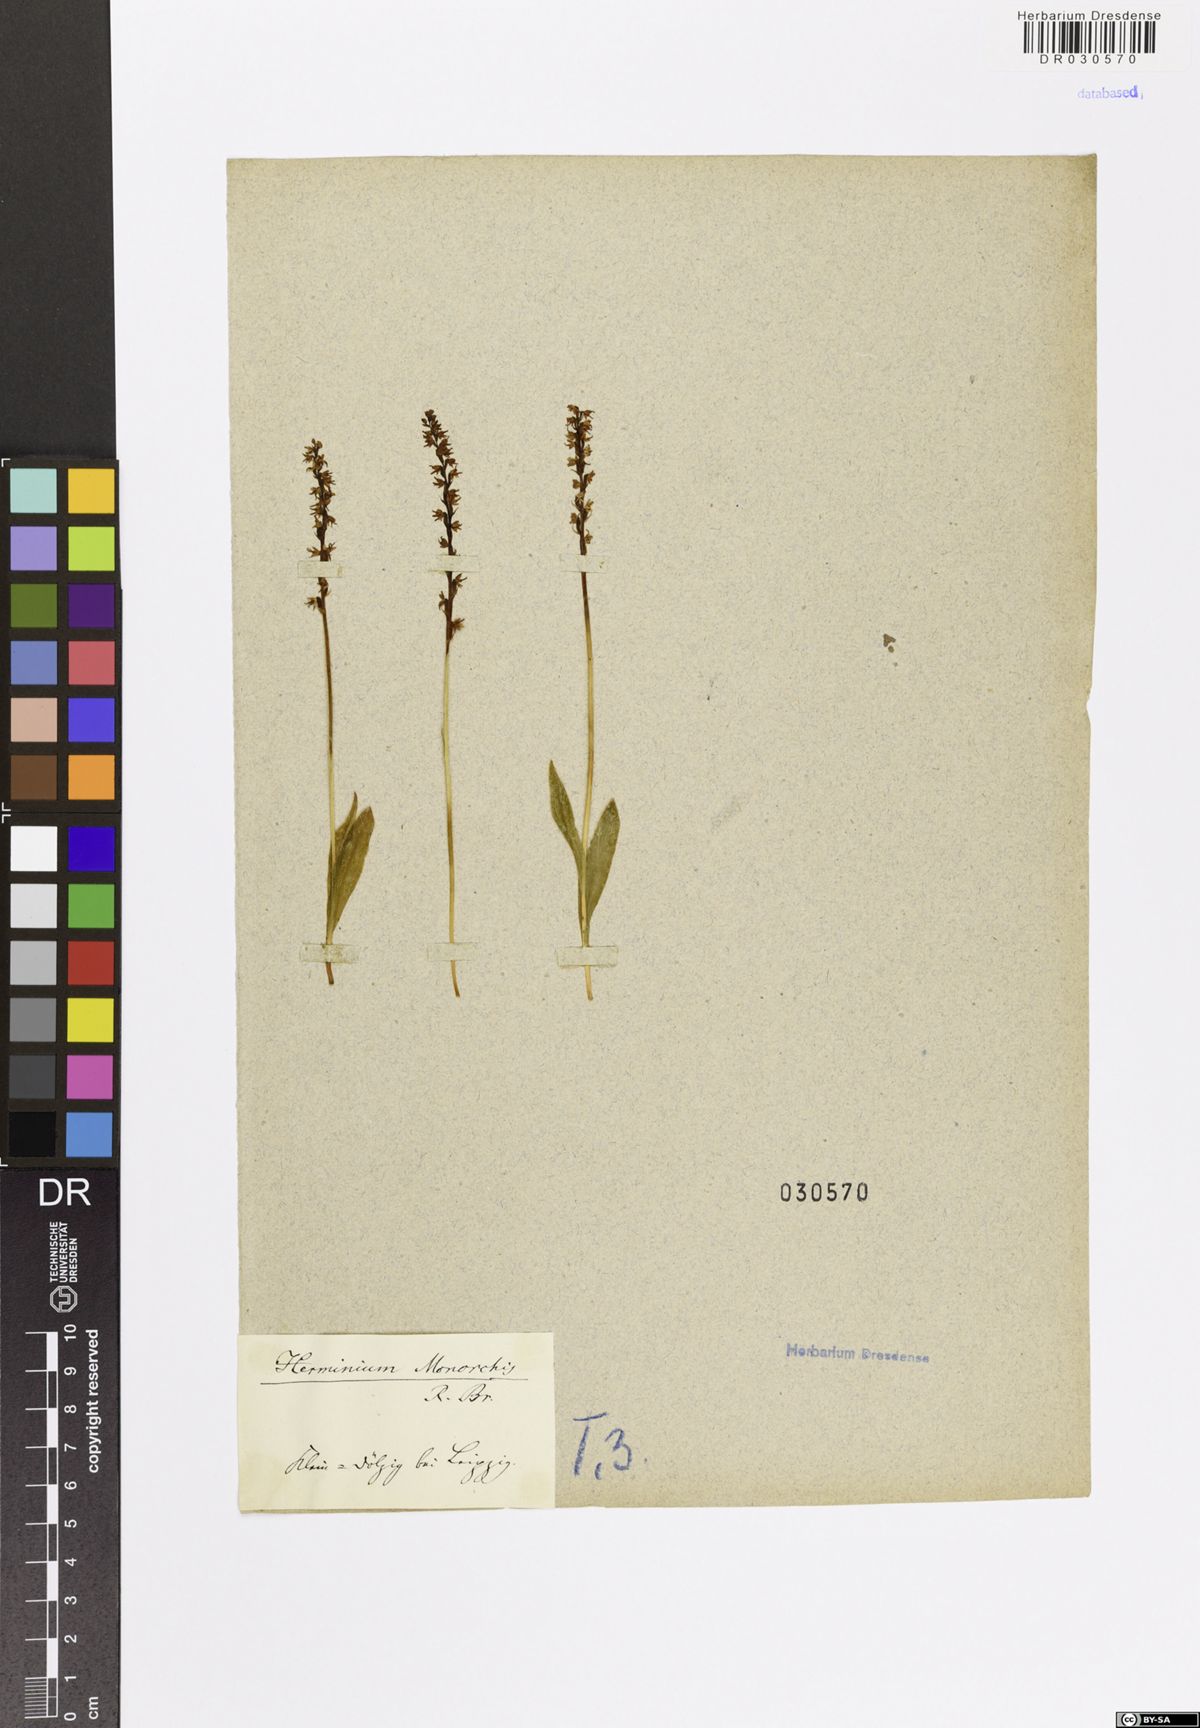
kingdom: Plantae
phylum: Tracheophyta
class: Liliopsida
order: Asparagales
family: Orchidaceae
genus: Herminium
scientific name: Herminium monorchis
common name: Musk orchid
